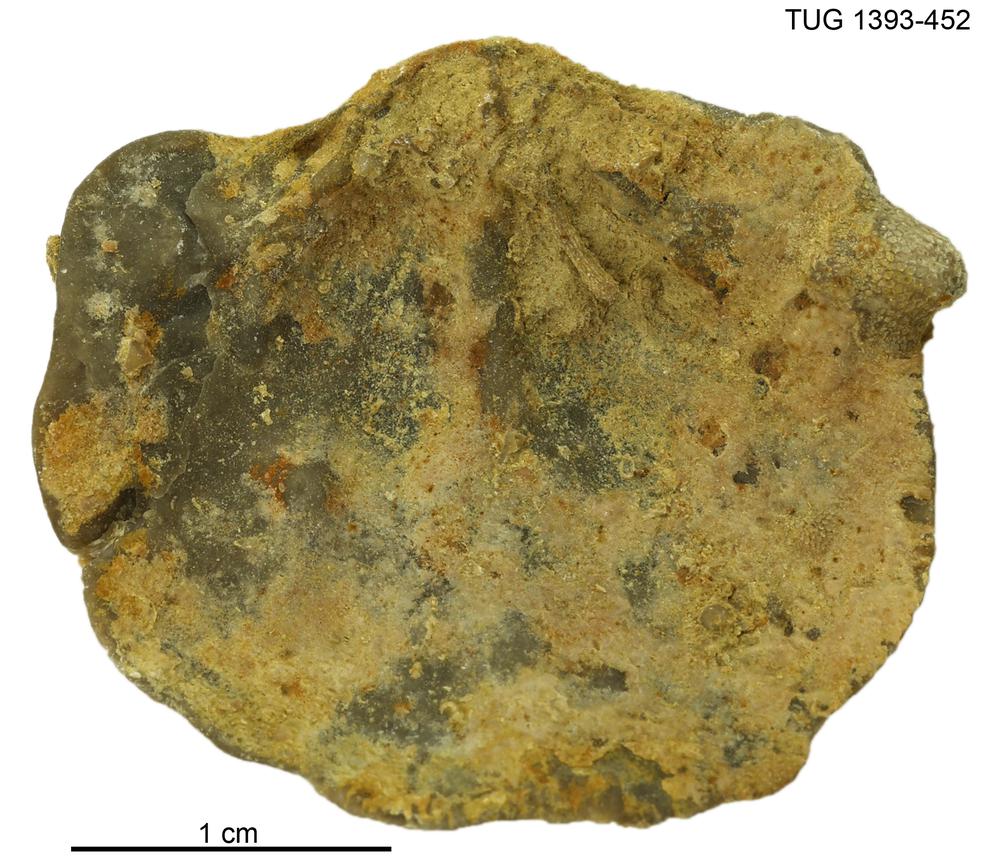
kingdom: Animalia
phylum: Brachiopoda
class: Rhynchonellata
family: Clitambonitidae
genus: Vellamo
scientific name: Vellamo
